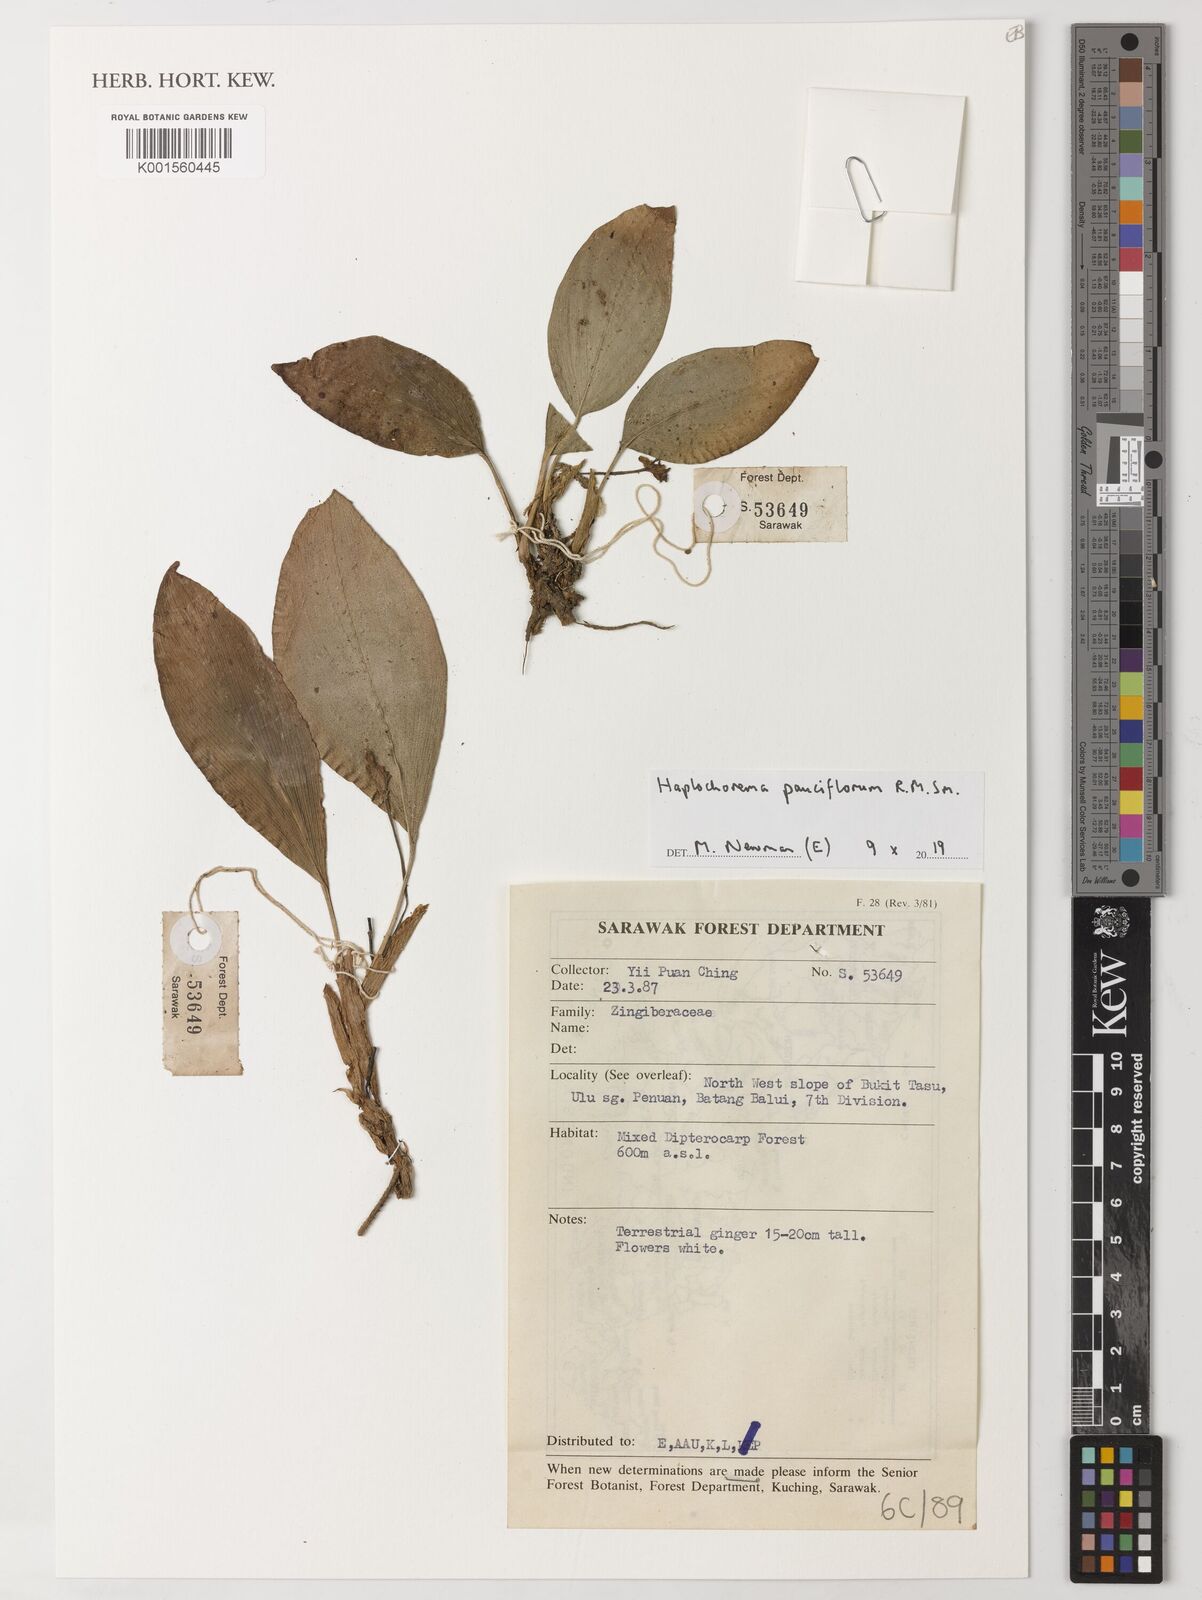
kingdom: Plantae
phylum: Tracheophyta
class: Liliopsida
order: Zingiberales
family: Zingiberaceae
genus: Boesenbergia
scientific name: Boesenbergia pauciflora
